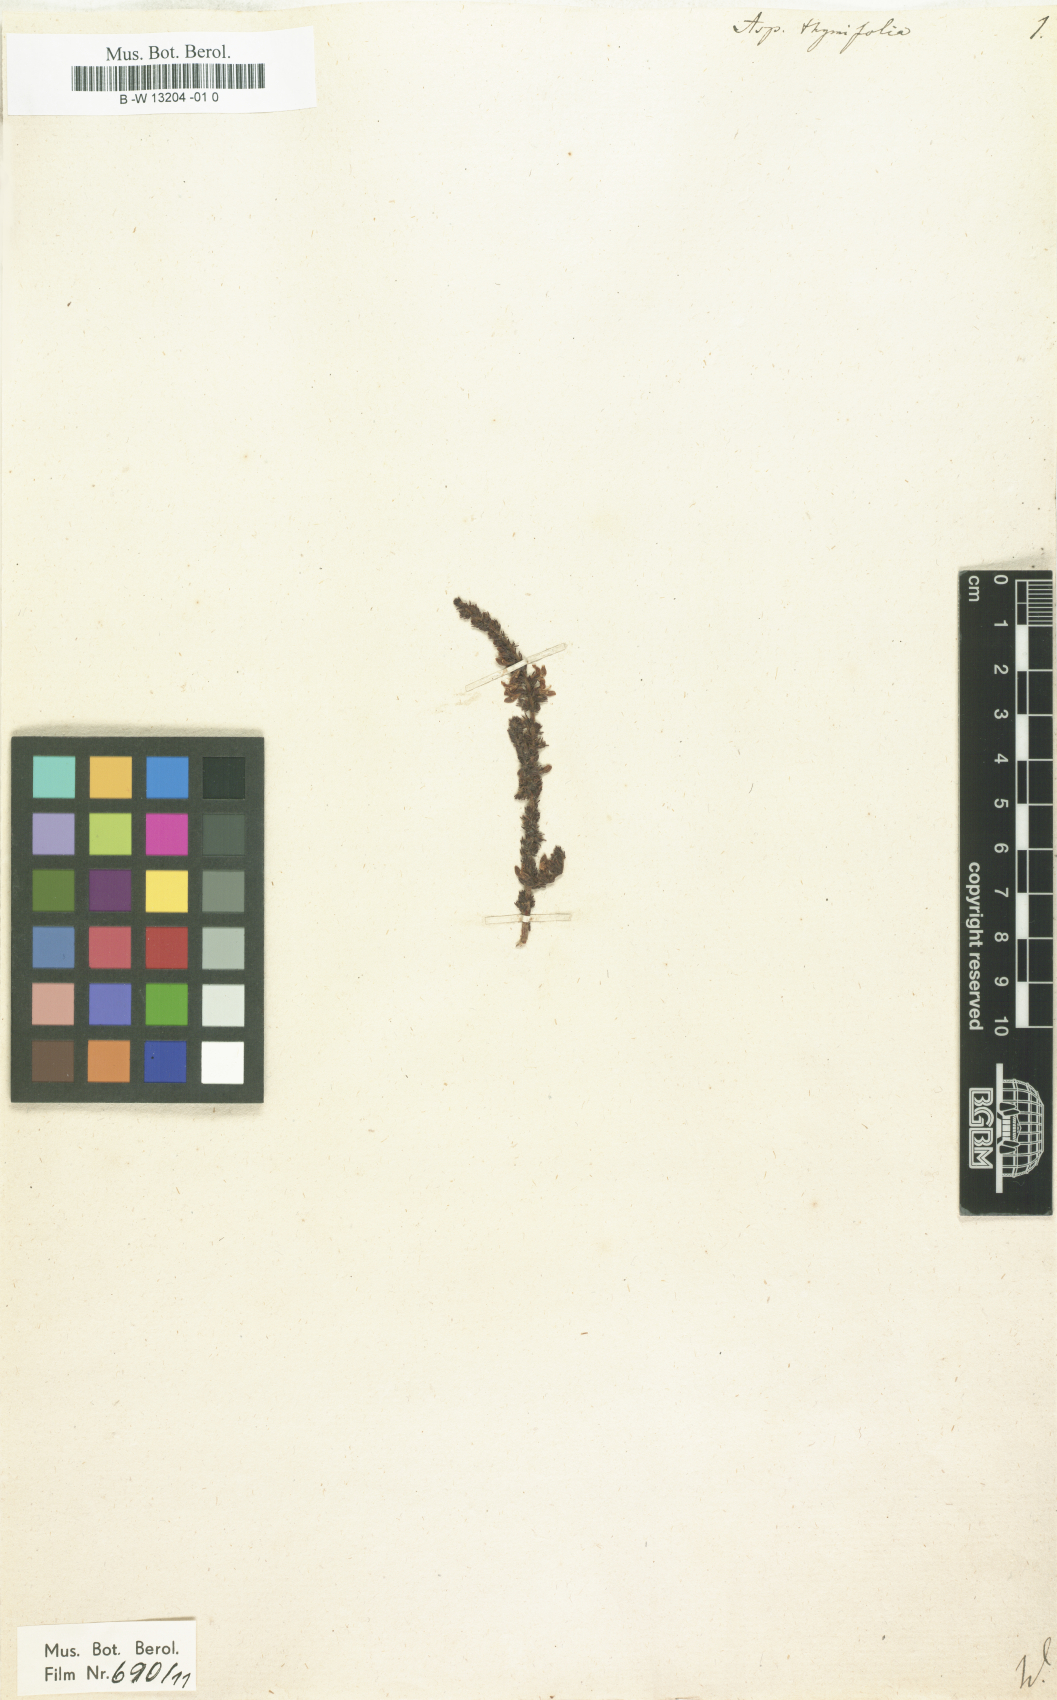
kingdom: Plantae
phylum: Tracheophyta
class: Magnoliopsida
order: Fabales
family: Fabaceae
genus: Aspalathus
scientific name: Aspalathus
